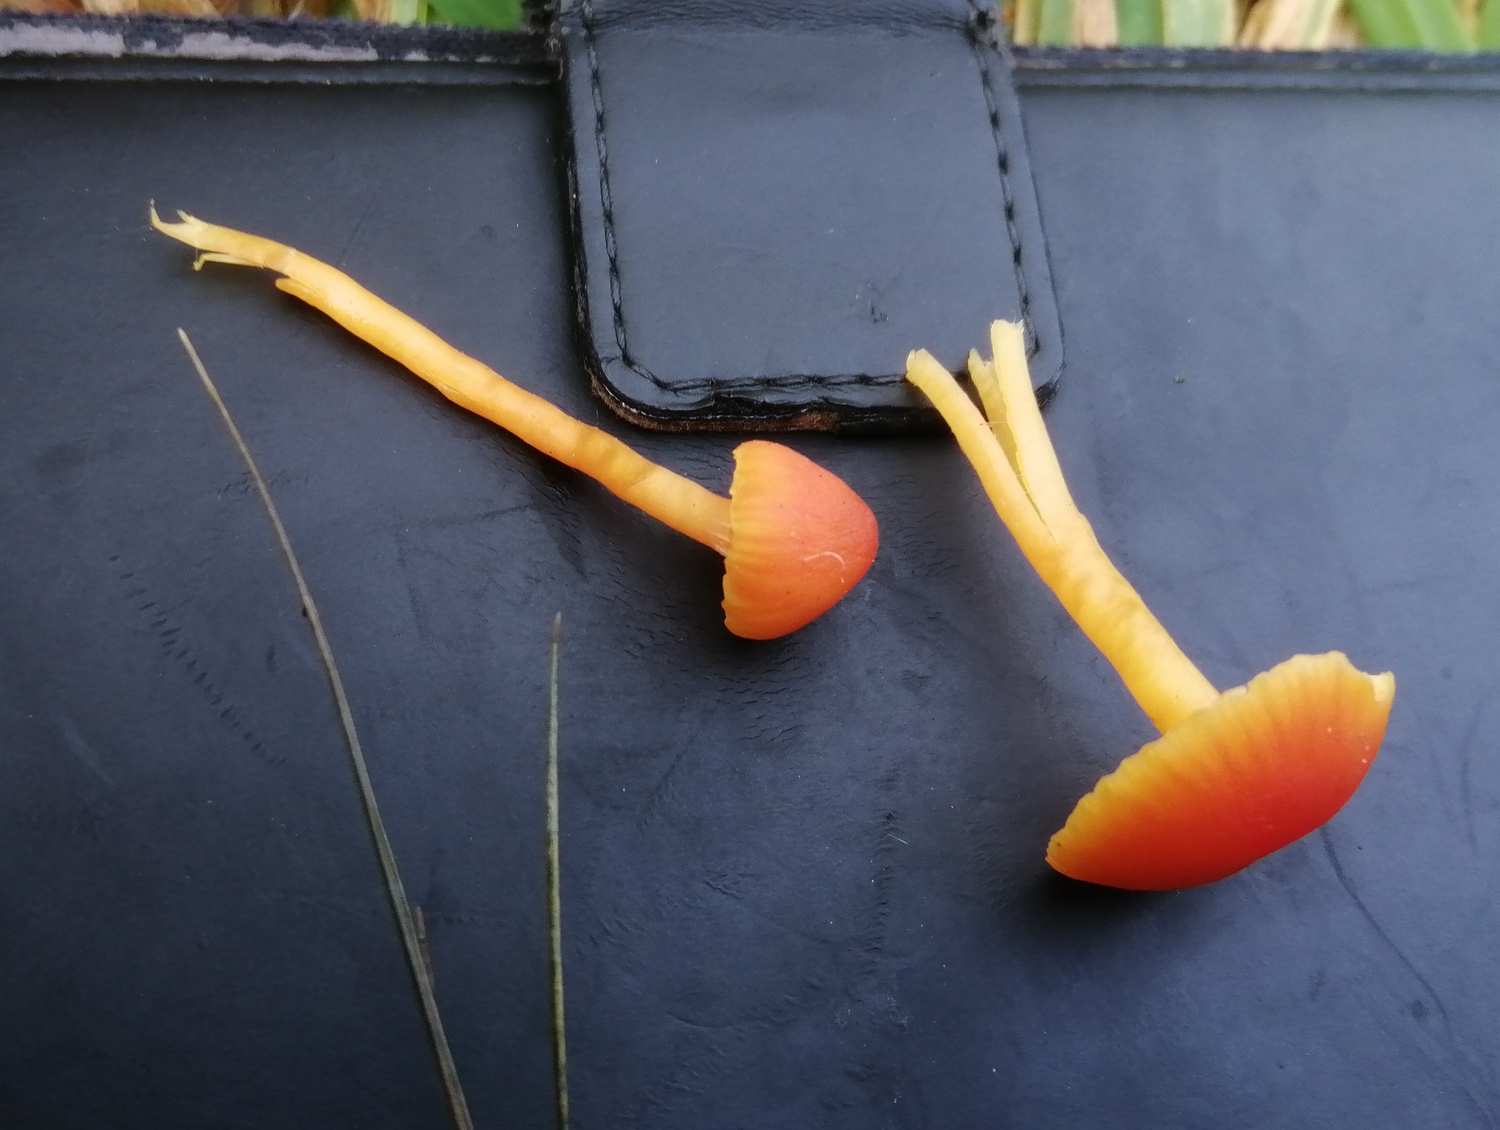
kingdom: Fungi
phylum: Basidiomycota
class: Agaricomycetes
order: Agaricales
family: Hygrophoraceae
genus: Hygrocybe
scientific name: Hygrocybe insipida
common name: liden vokshat
